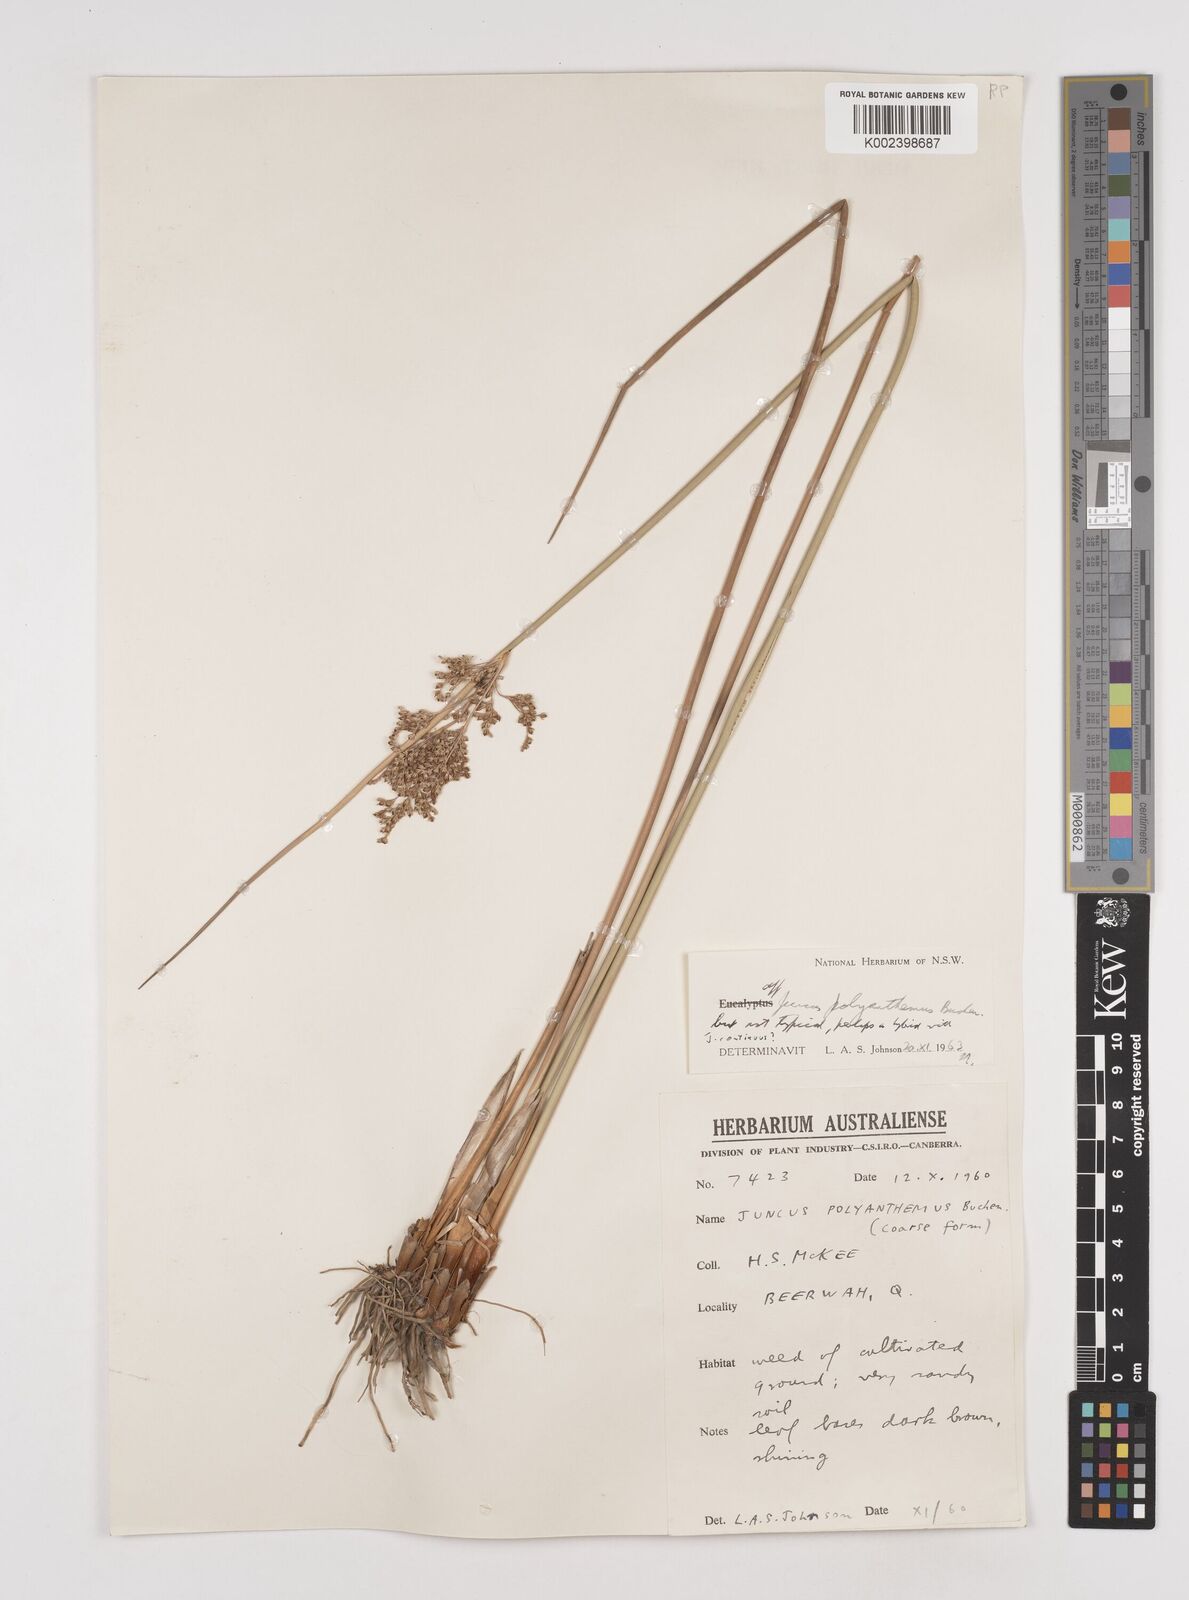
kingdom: Plantae
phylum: Tracheophyta
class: Liliopsida
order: Poales
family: Juncaceae
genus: Juncus
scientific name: Juncus polyanthemus
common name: Manyflower rush
